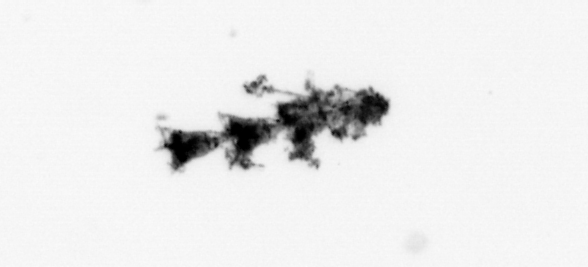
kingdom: Animalia
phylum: Cnidaria
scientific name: Cnidaria
